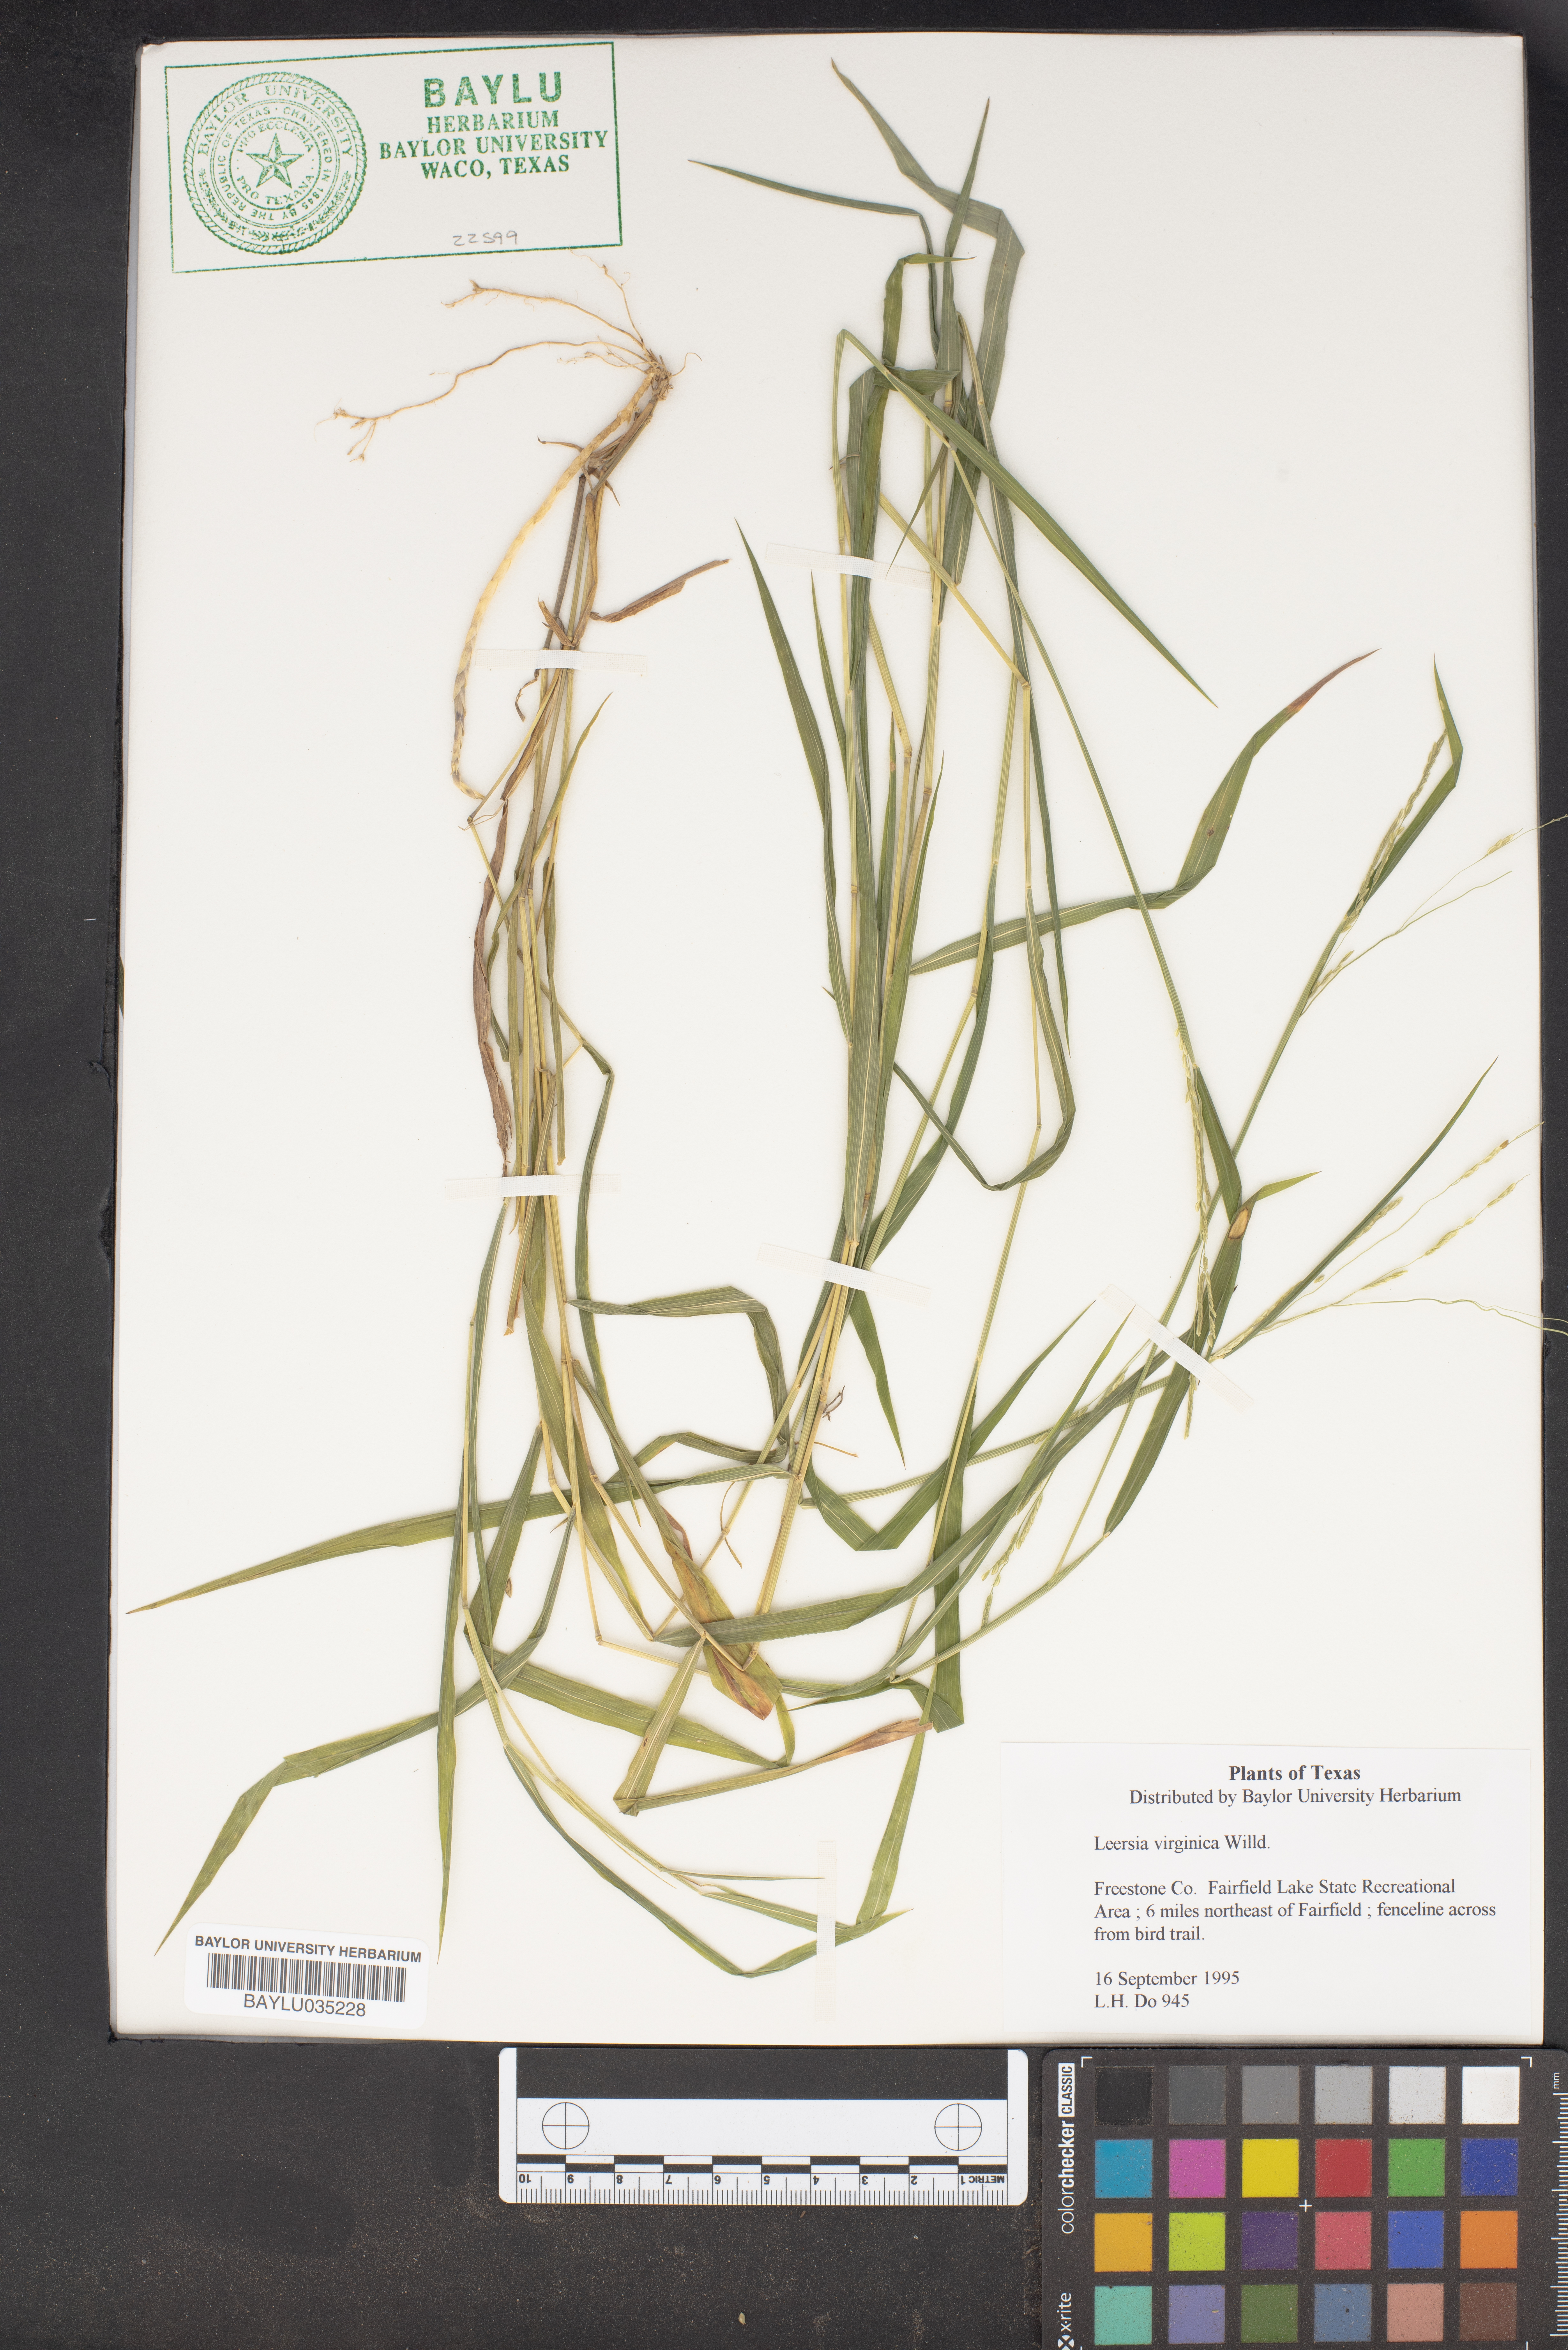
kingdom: Plantae
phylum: Tracheophyta
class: Liliopsida
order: Poales
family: Poaceae
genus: Leersia
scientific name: Leersia virginica
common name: White cutgrass
